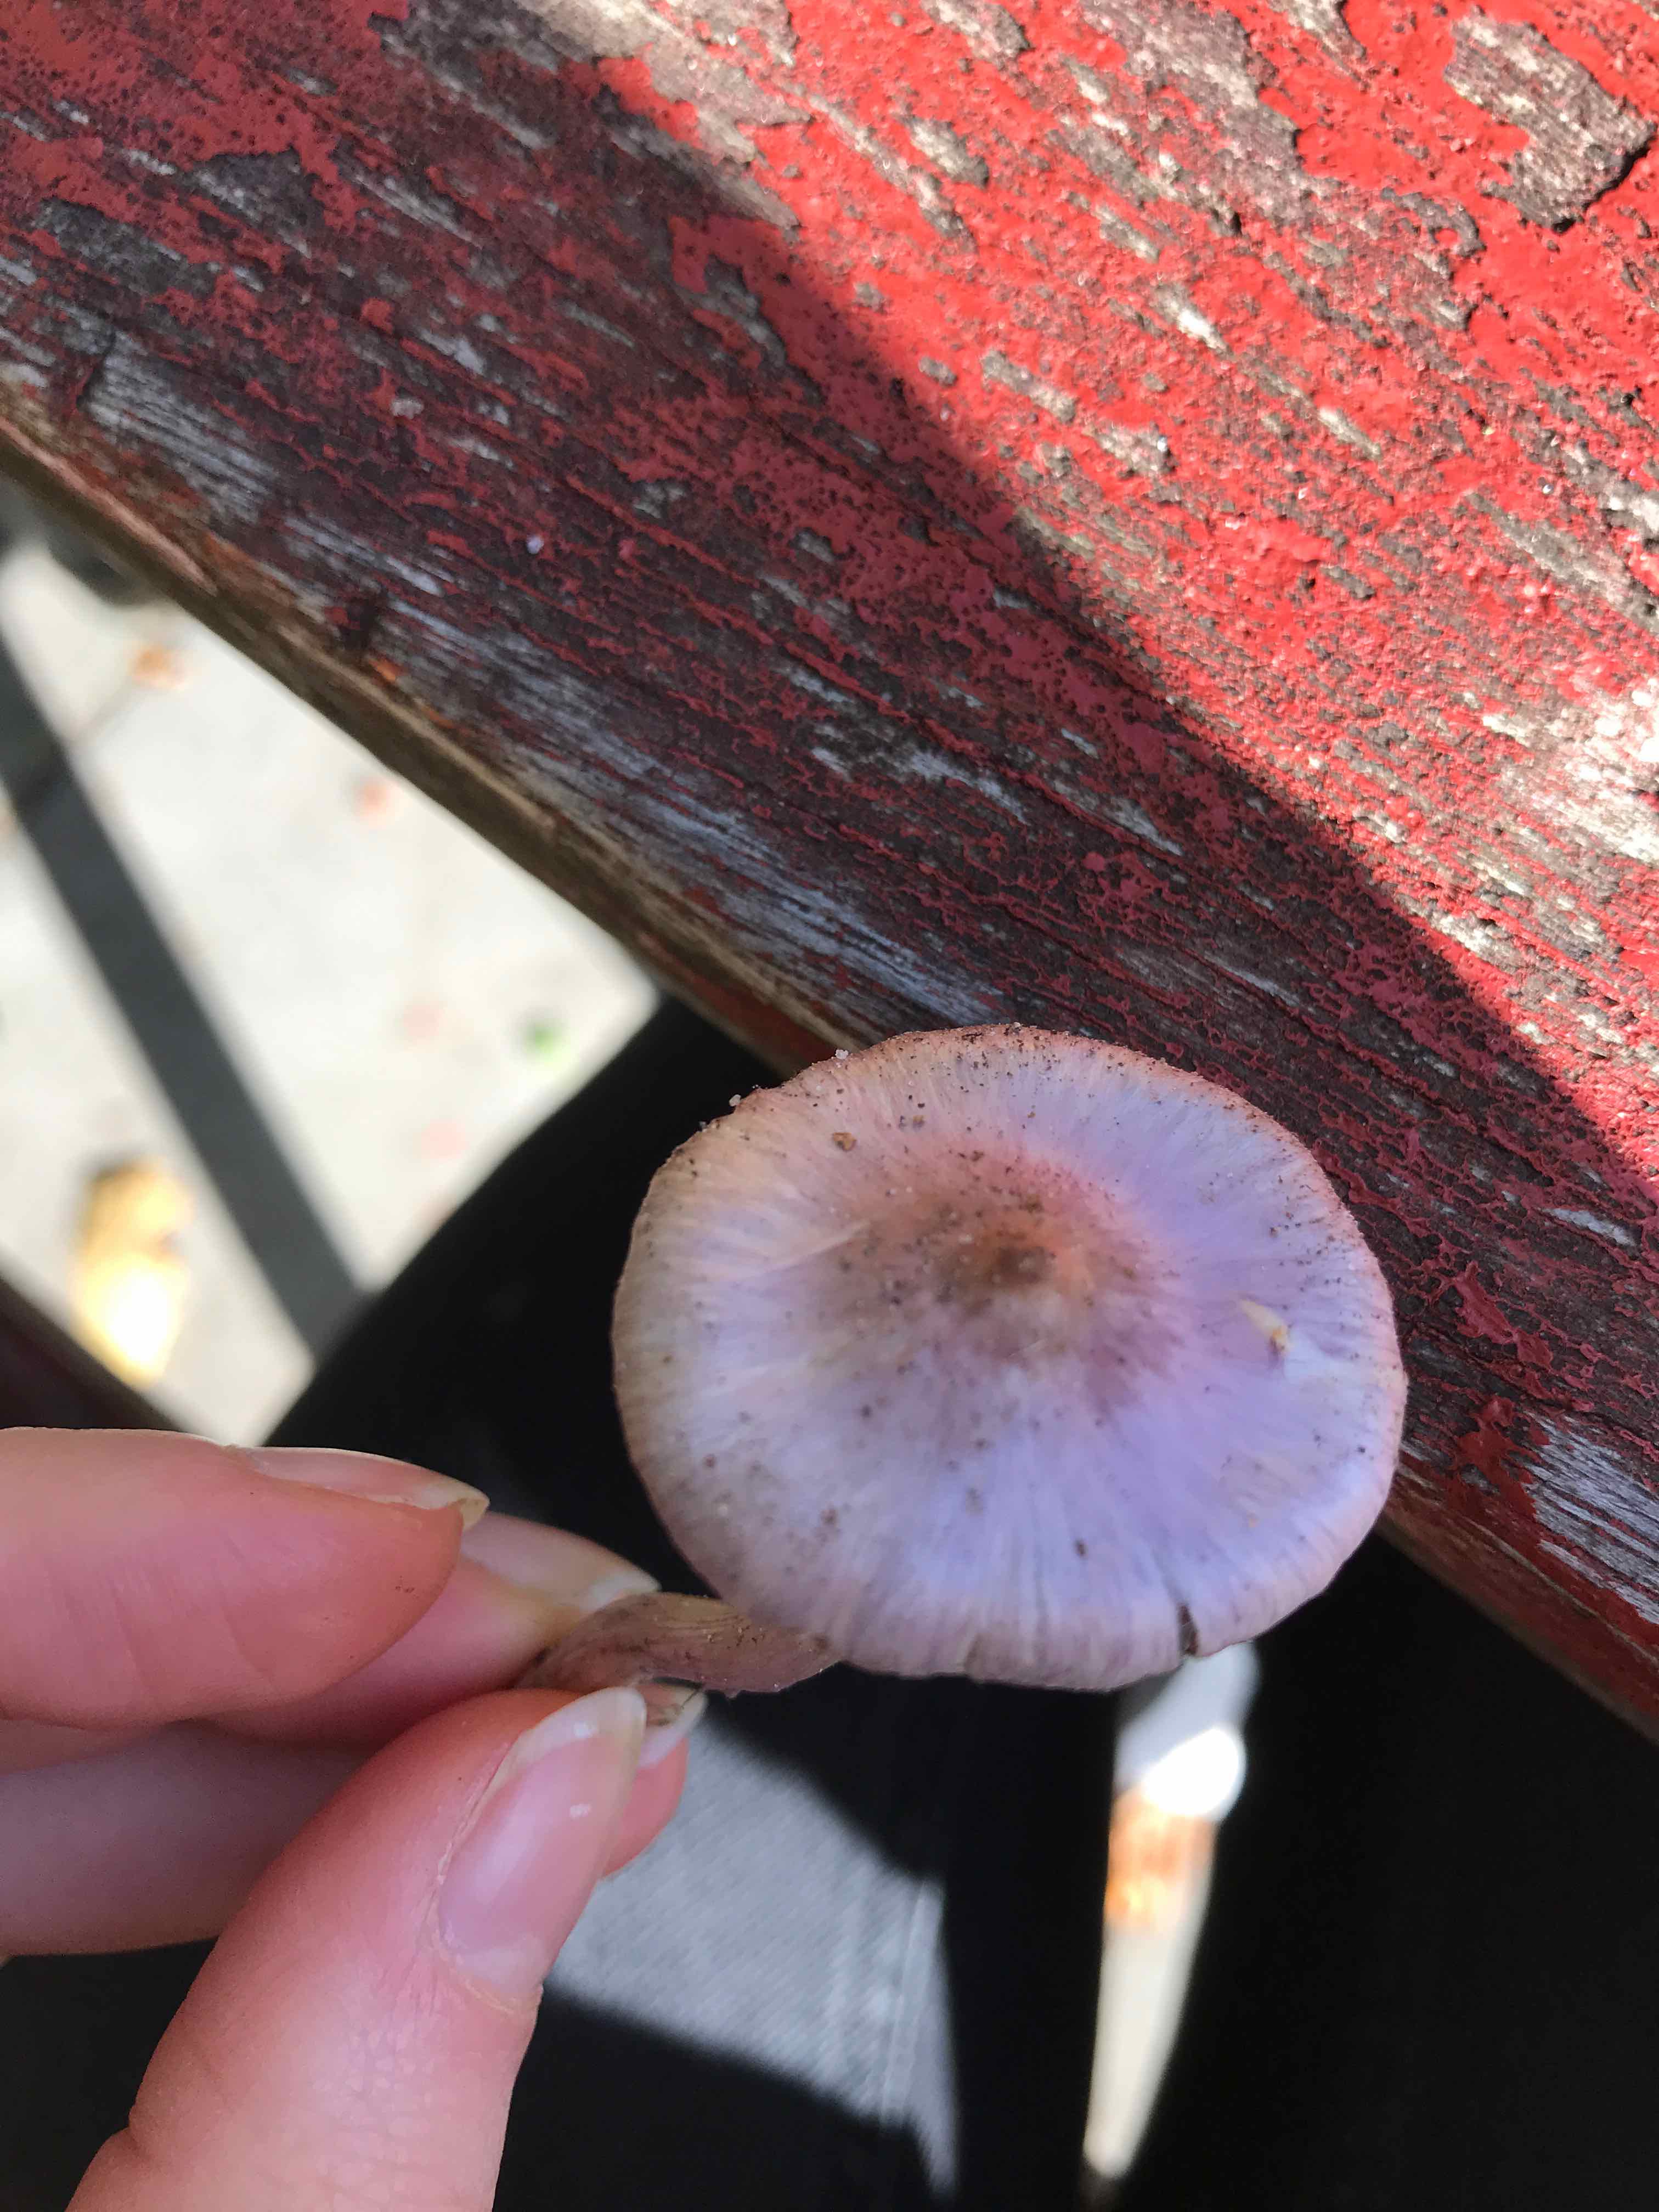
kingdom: Fungi
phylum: Basidiomycota
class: Agaricomycetes
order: Agaricales
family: Inocybaceae
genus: Inocybe
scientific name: Inocybe geophylla
